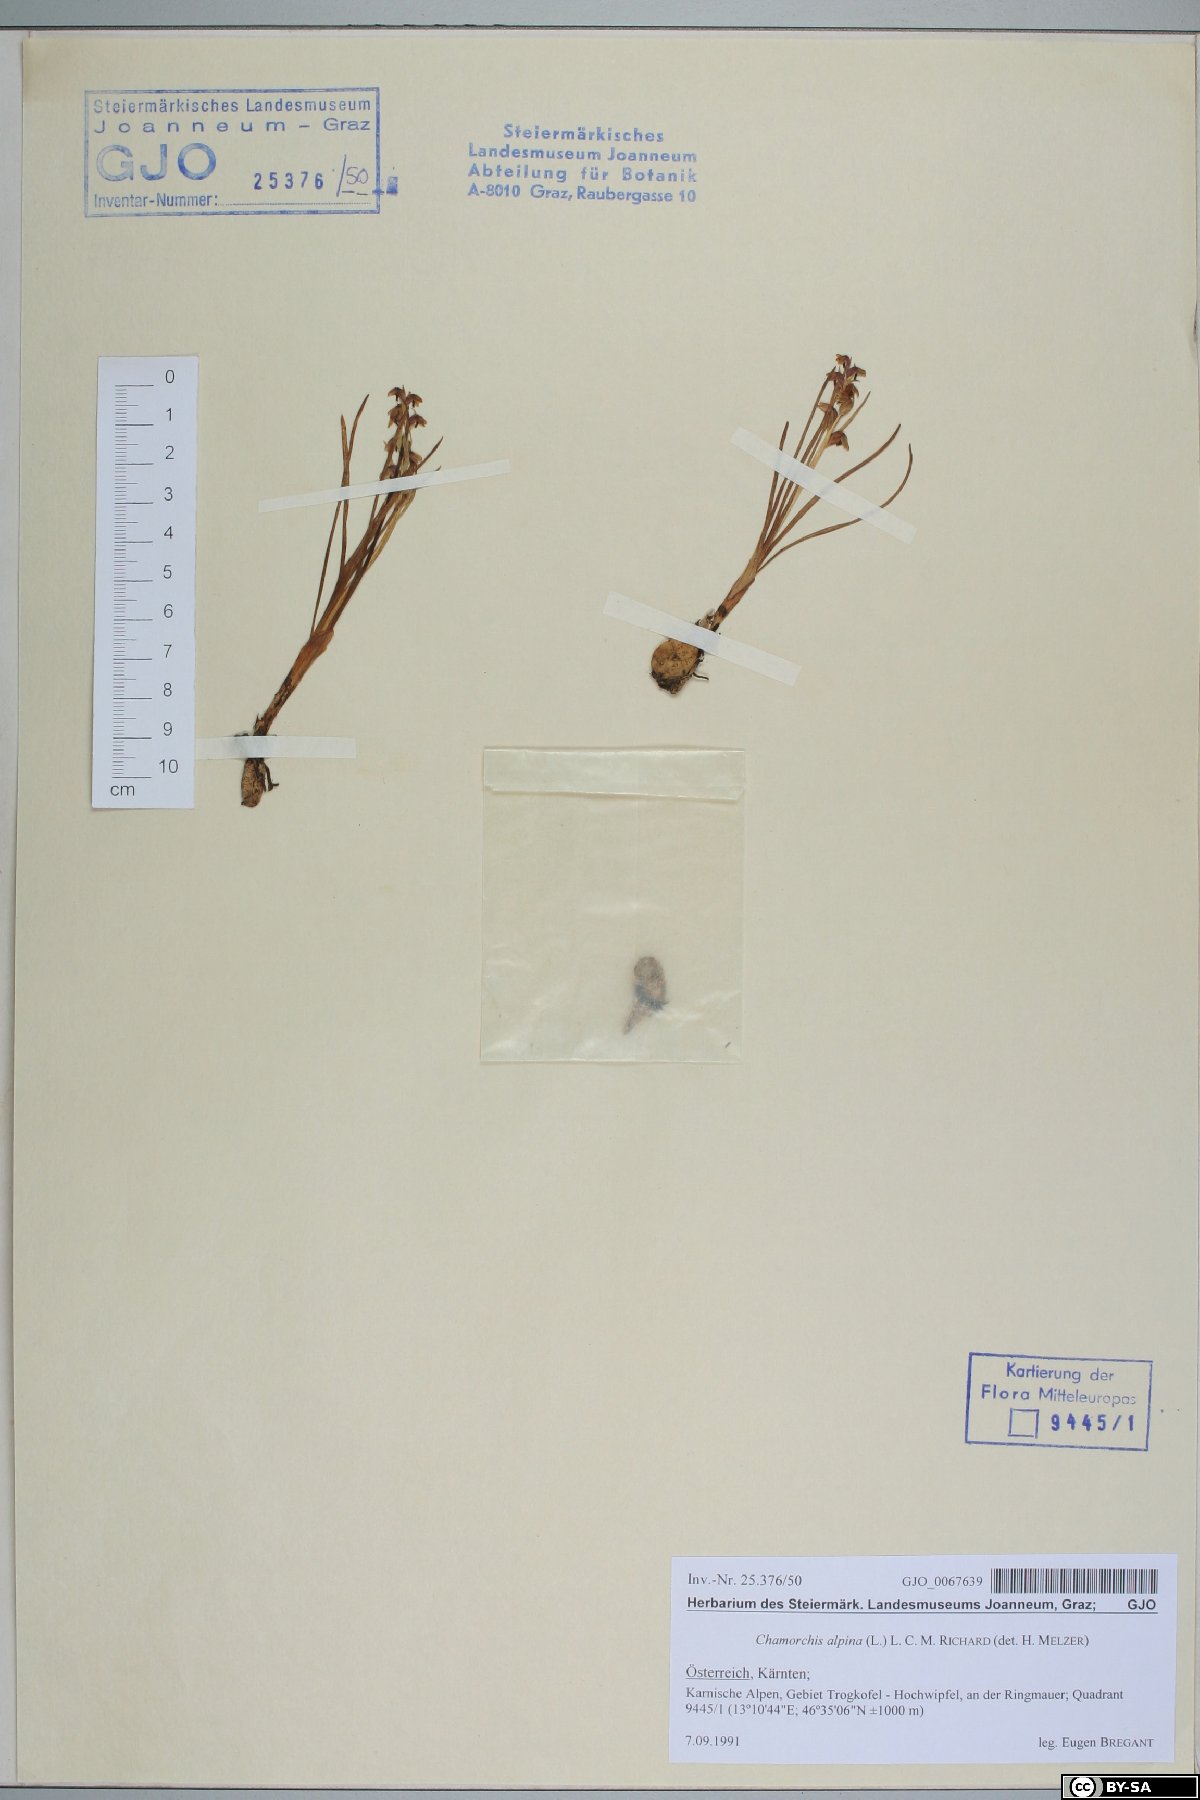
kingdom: Plantae
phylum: Tracheophyta
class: Liliopsida
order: Asparagales
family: Orchidaceae
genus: Chamorchis
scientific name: Chamorchis alpina
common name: Alpine chamorchis
